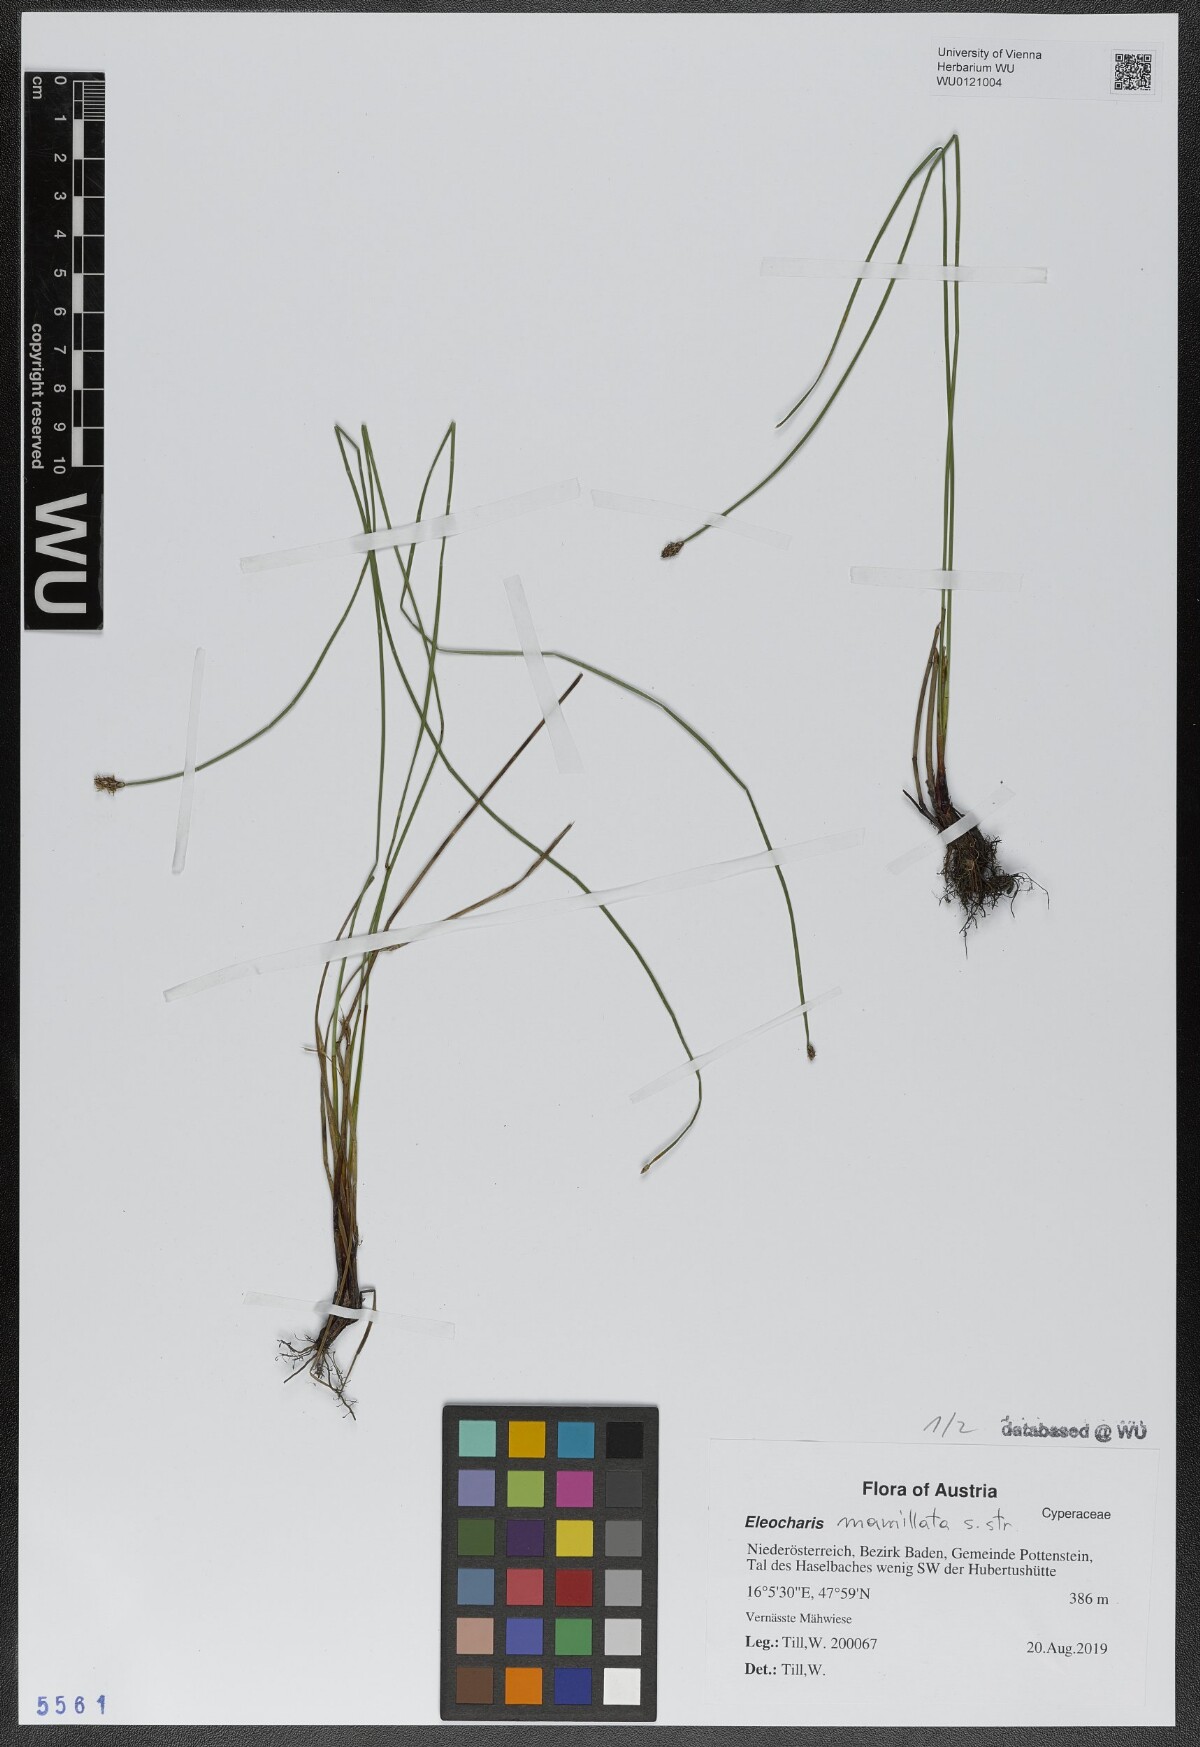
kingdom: Plantae
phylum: Tracheophyta
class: Liliopsida
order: Poales
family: Cyperaceae
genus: Eleocharis
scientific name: Eleocharis mamillata
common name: Northern spike-rush
